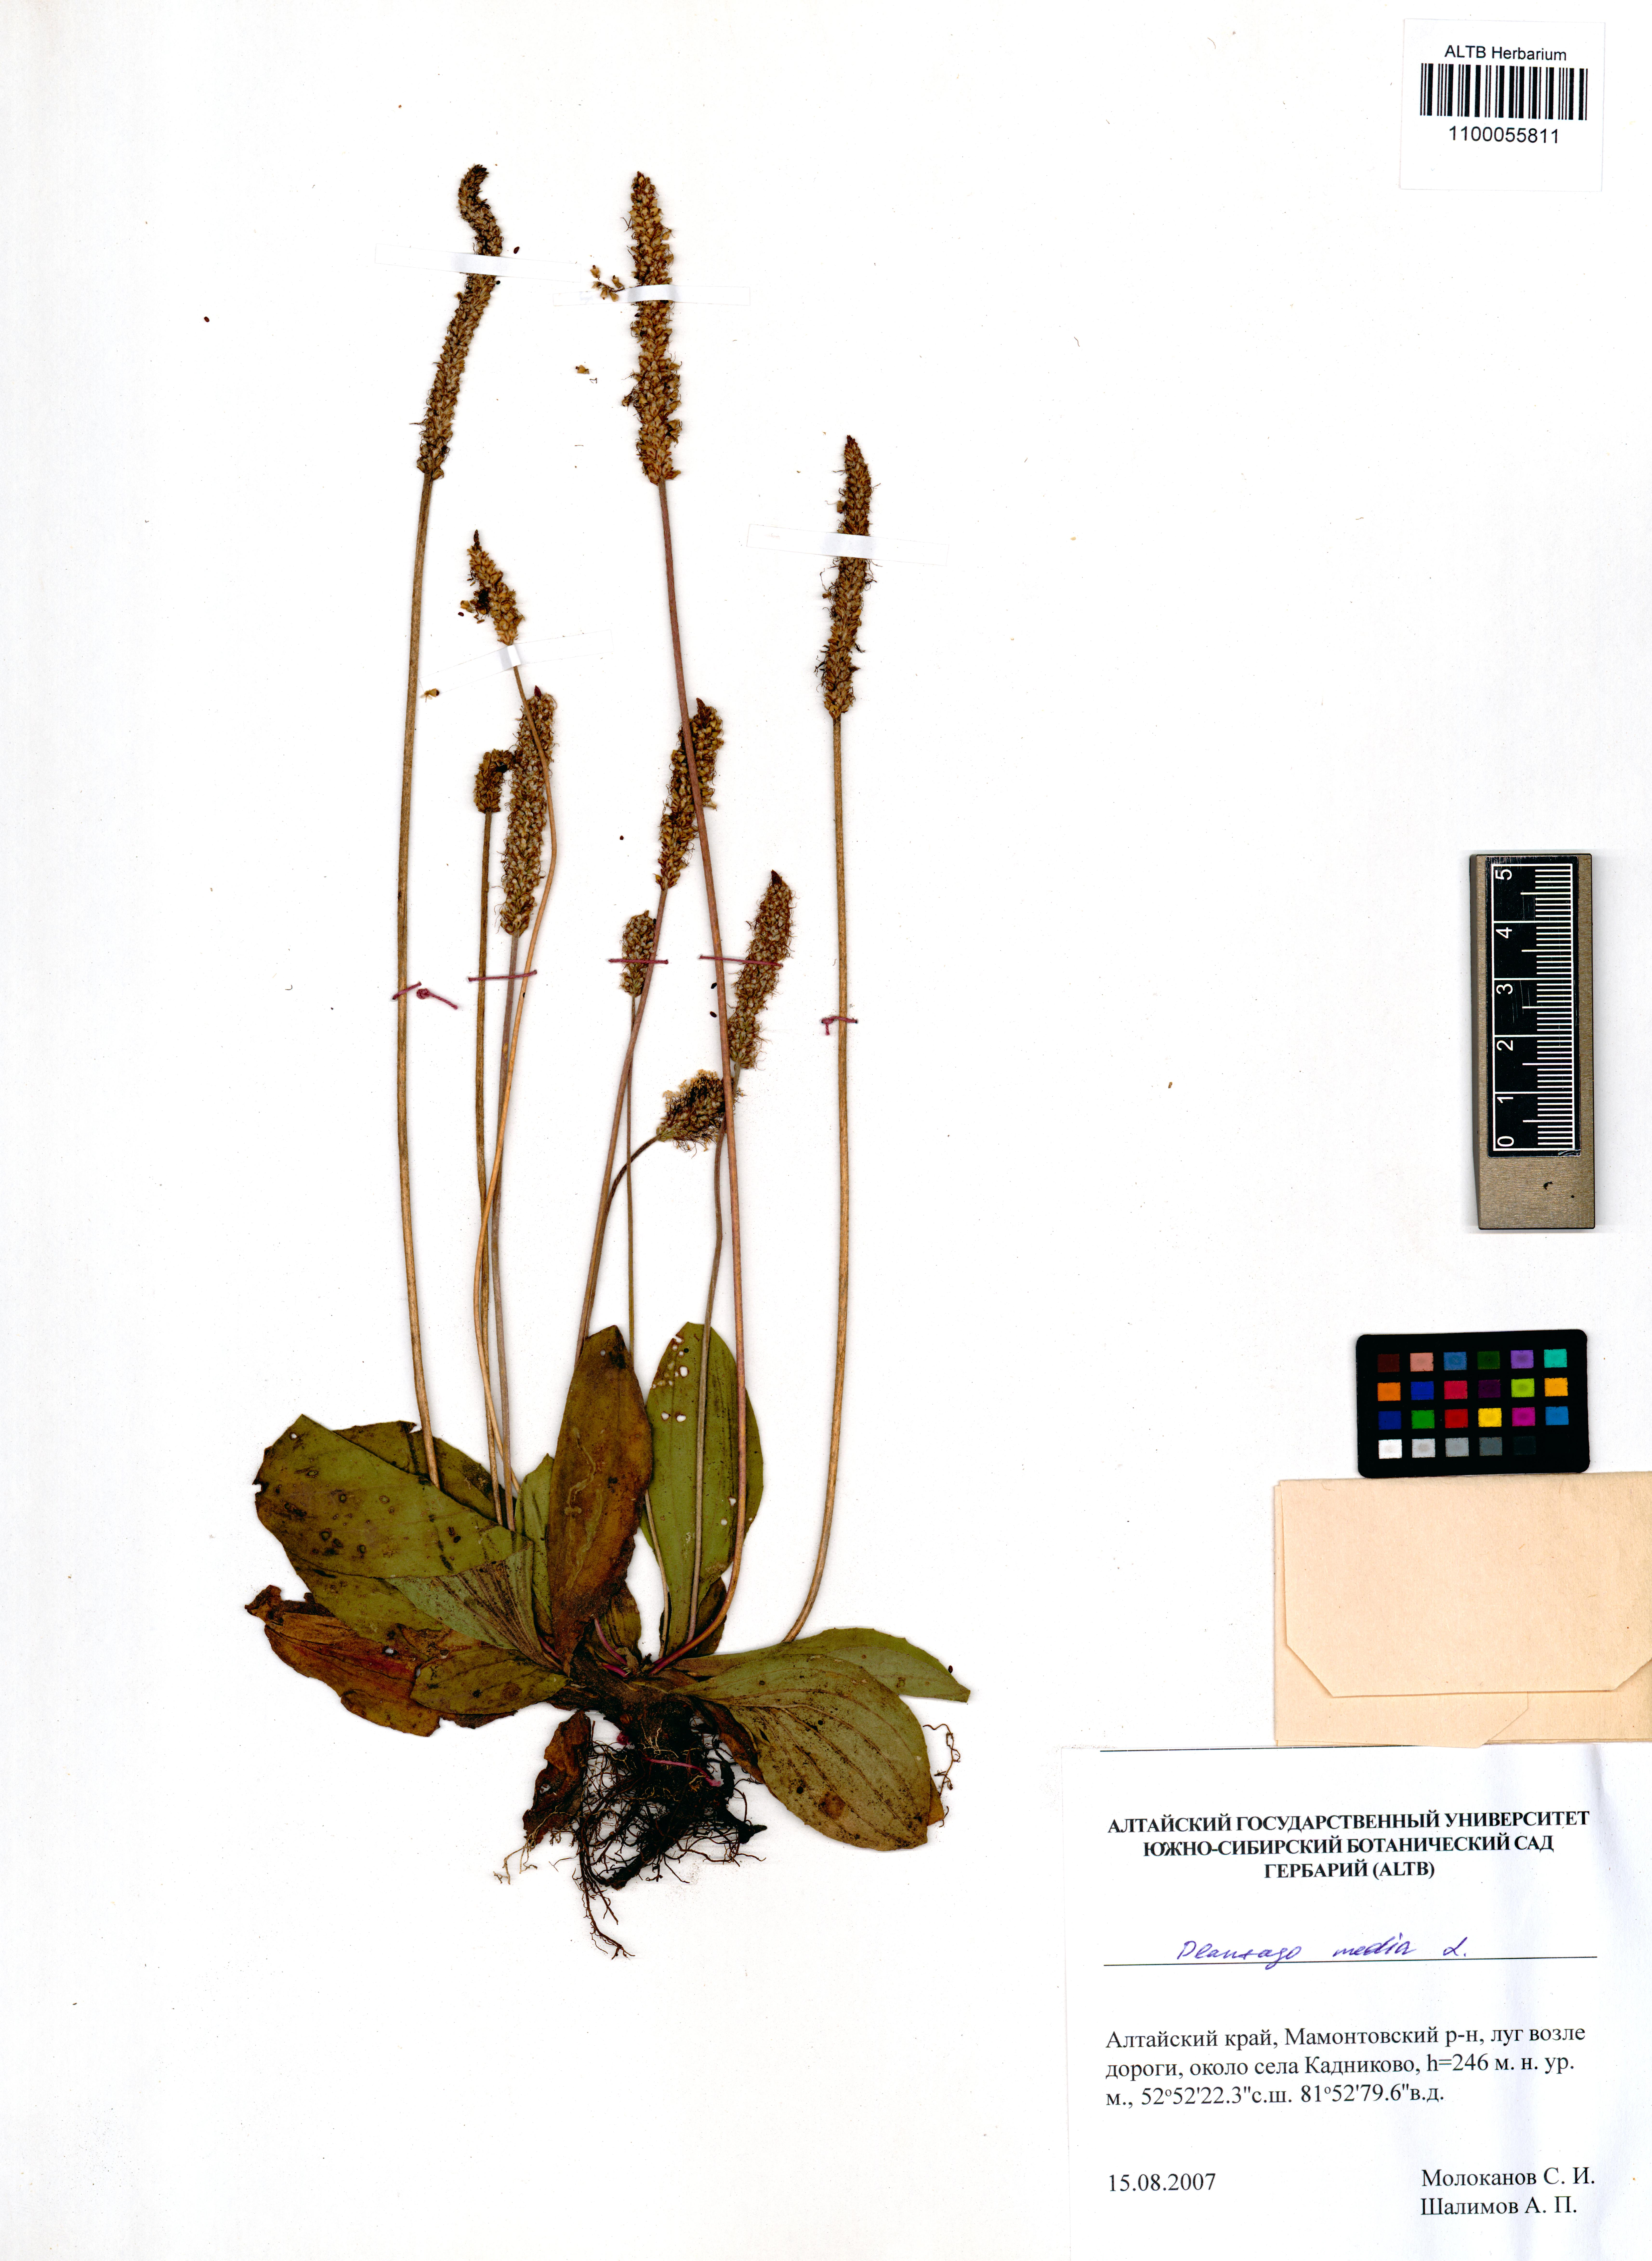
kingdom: Plantae
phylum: Tracheophyta
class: Magnoliopsida
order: Lamiales
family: Plantaginaceae
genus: Plantago
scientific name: Plantago media
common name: Hoary plantain
